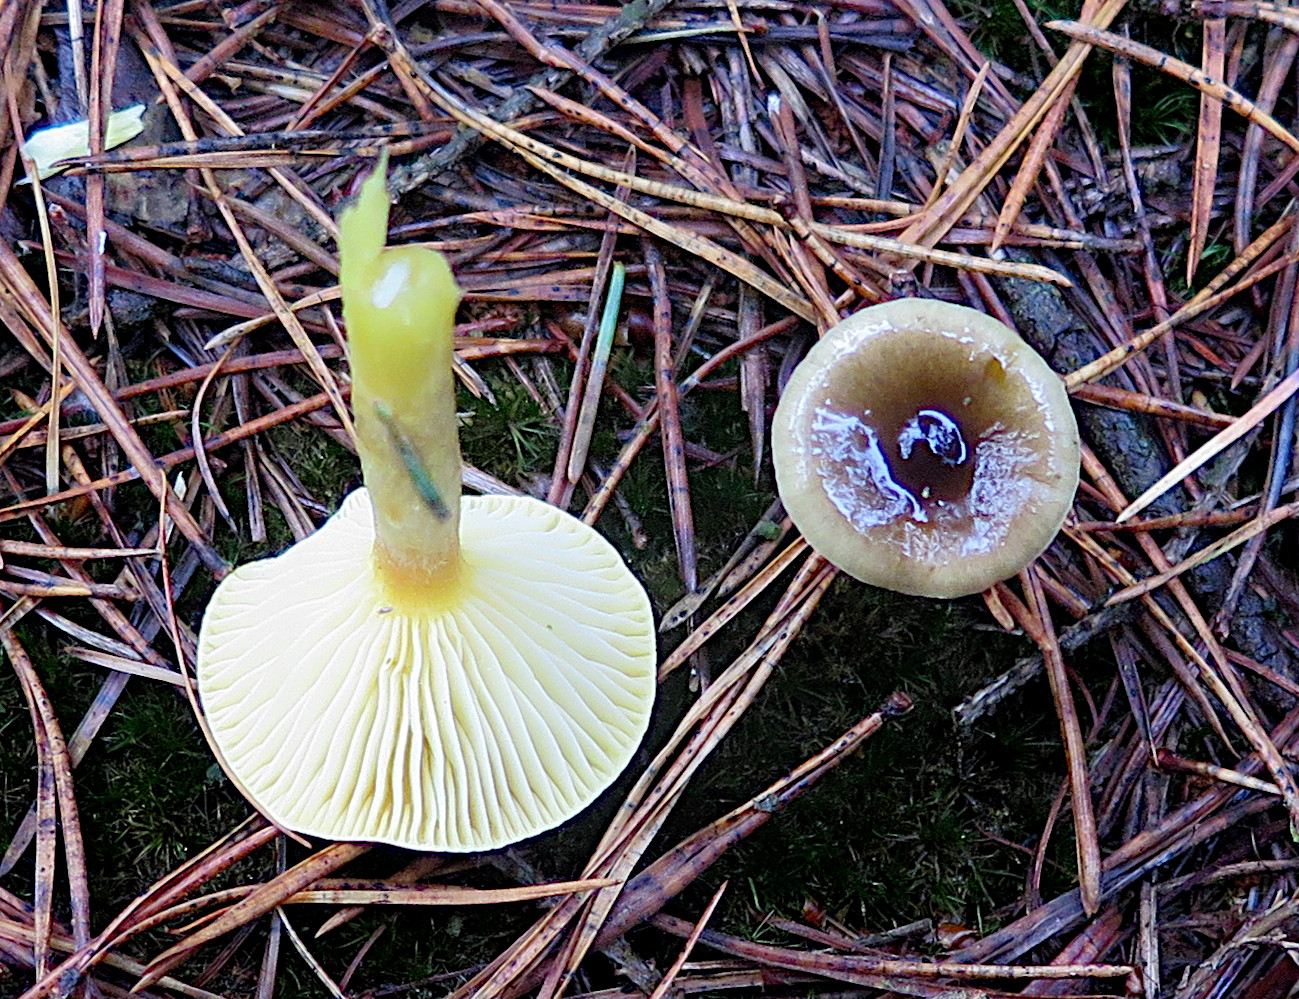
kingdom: Fungi
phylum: Basidiomycota
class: Agaricomycetes
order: Agaricales
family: Hygrophoraceae
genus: Hygrophorus
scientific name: Hygrophorus hypothejus
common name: frost-sneglehat
